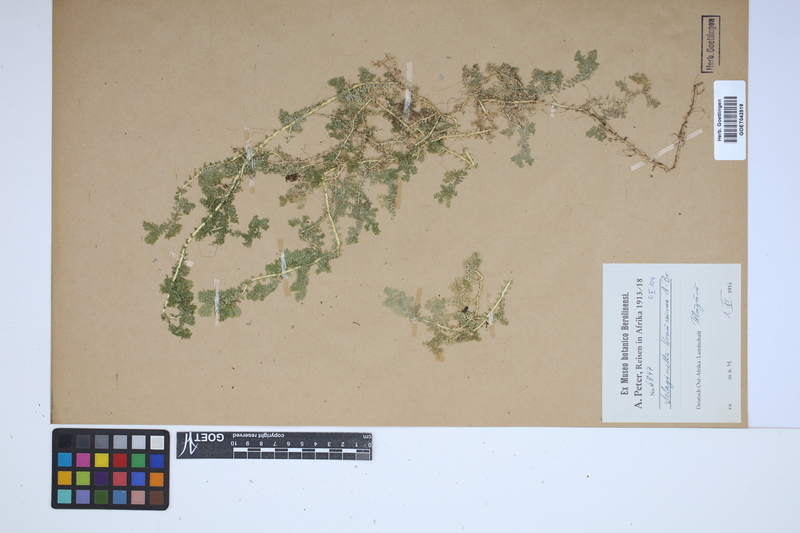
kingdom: Plantae
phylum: Tracheophyta
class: Lycopodiopsida
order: Selaginellales
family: Selaginellaceae
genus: Selaginella
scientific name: Selaginella kraussiana
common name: Krauss' spikemoss
